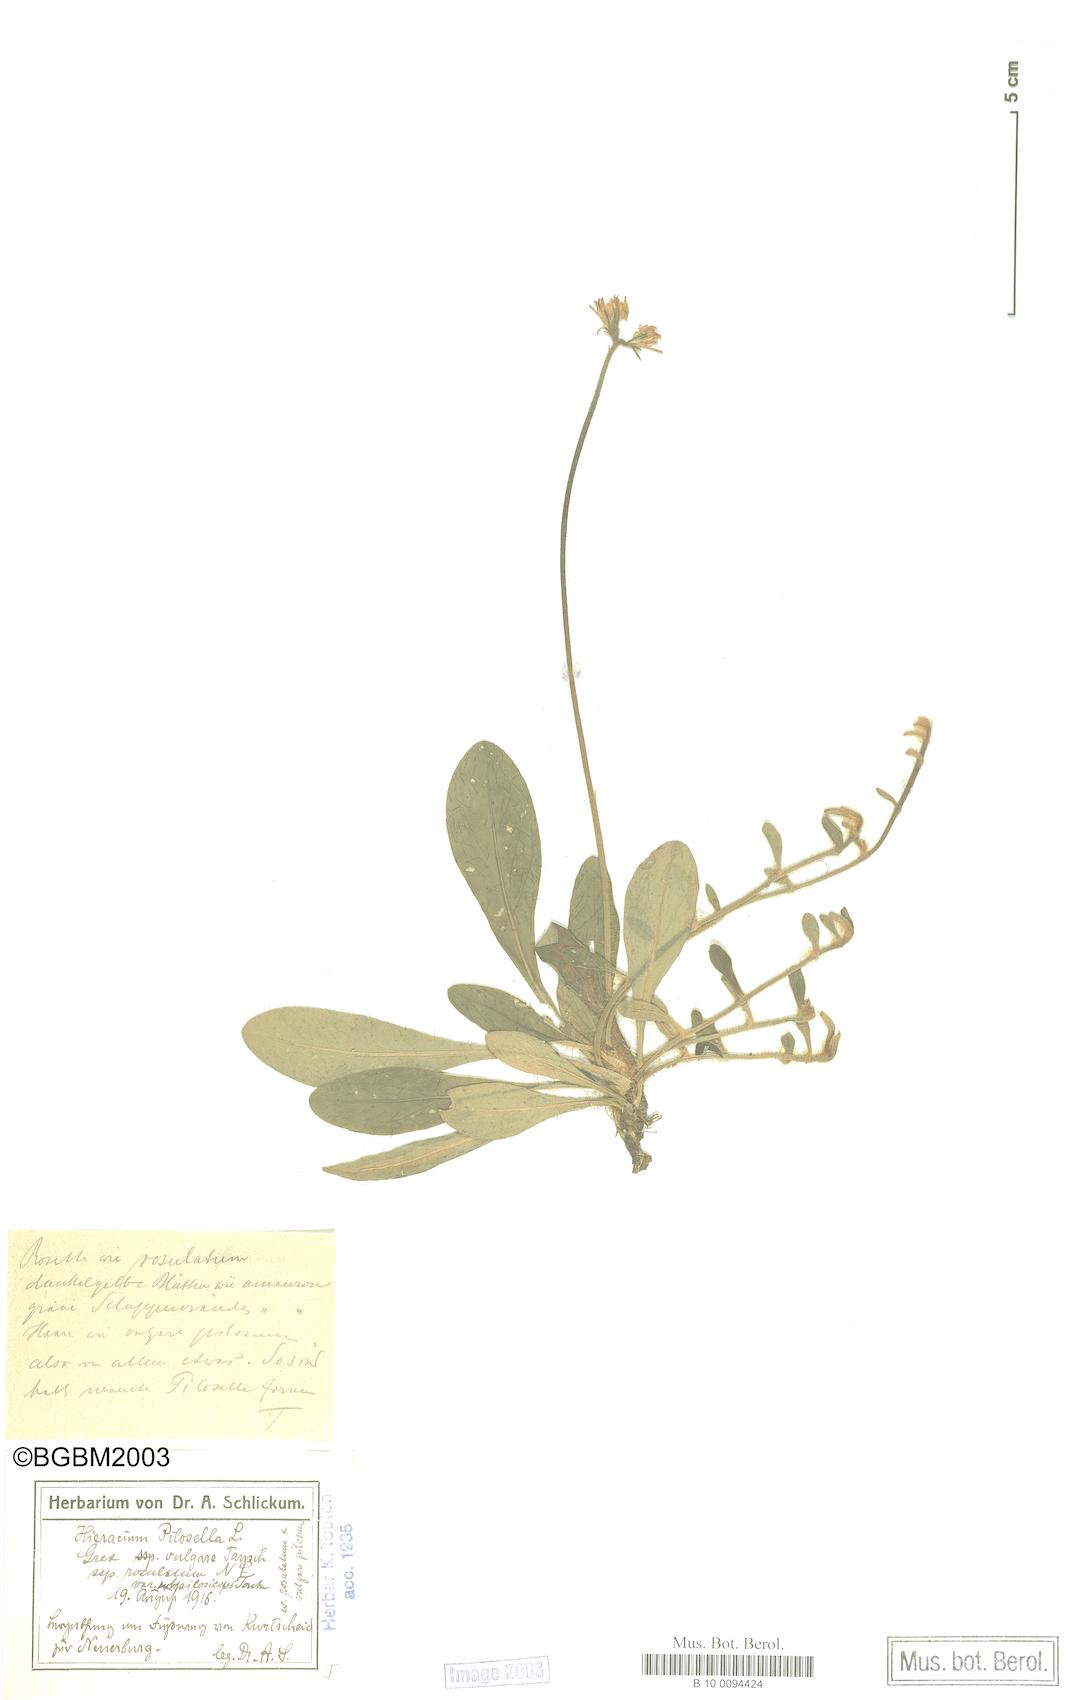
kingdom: Plantae
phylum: Tracheophyta
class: Magnoliopsida
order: Asterales
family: Asteraceae
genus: Pilosella
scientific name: Pilosella officinarum
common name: Mouse-ear hawkweed
